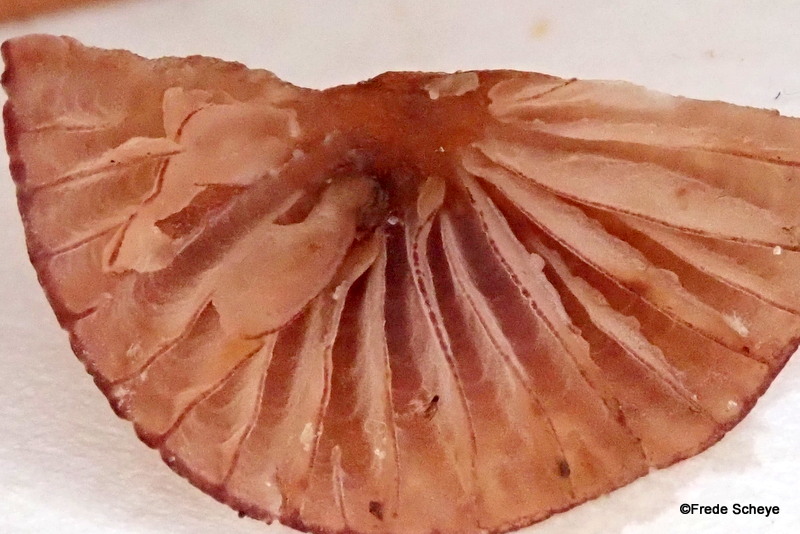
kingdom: Fungi
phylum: Basidiomycota
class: Agaricomycetes
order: Agaricales
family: Mycenaceae
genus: Mycena
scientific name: Mycena sanguinolenta
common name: rødmælket huesvamp
